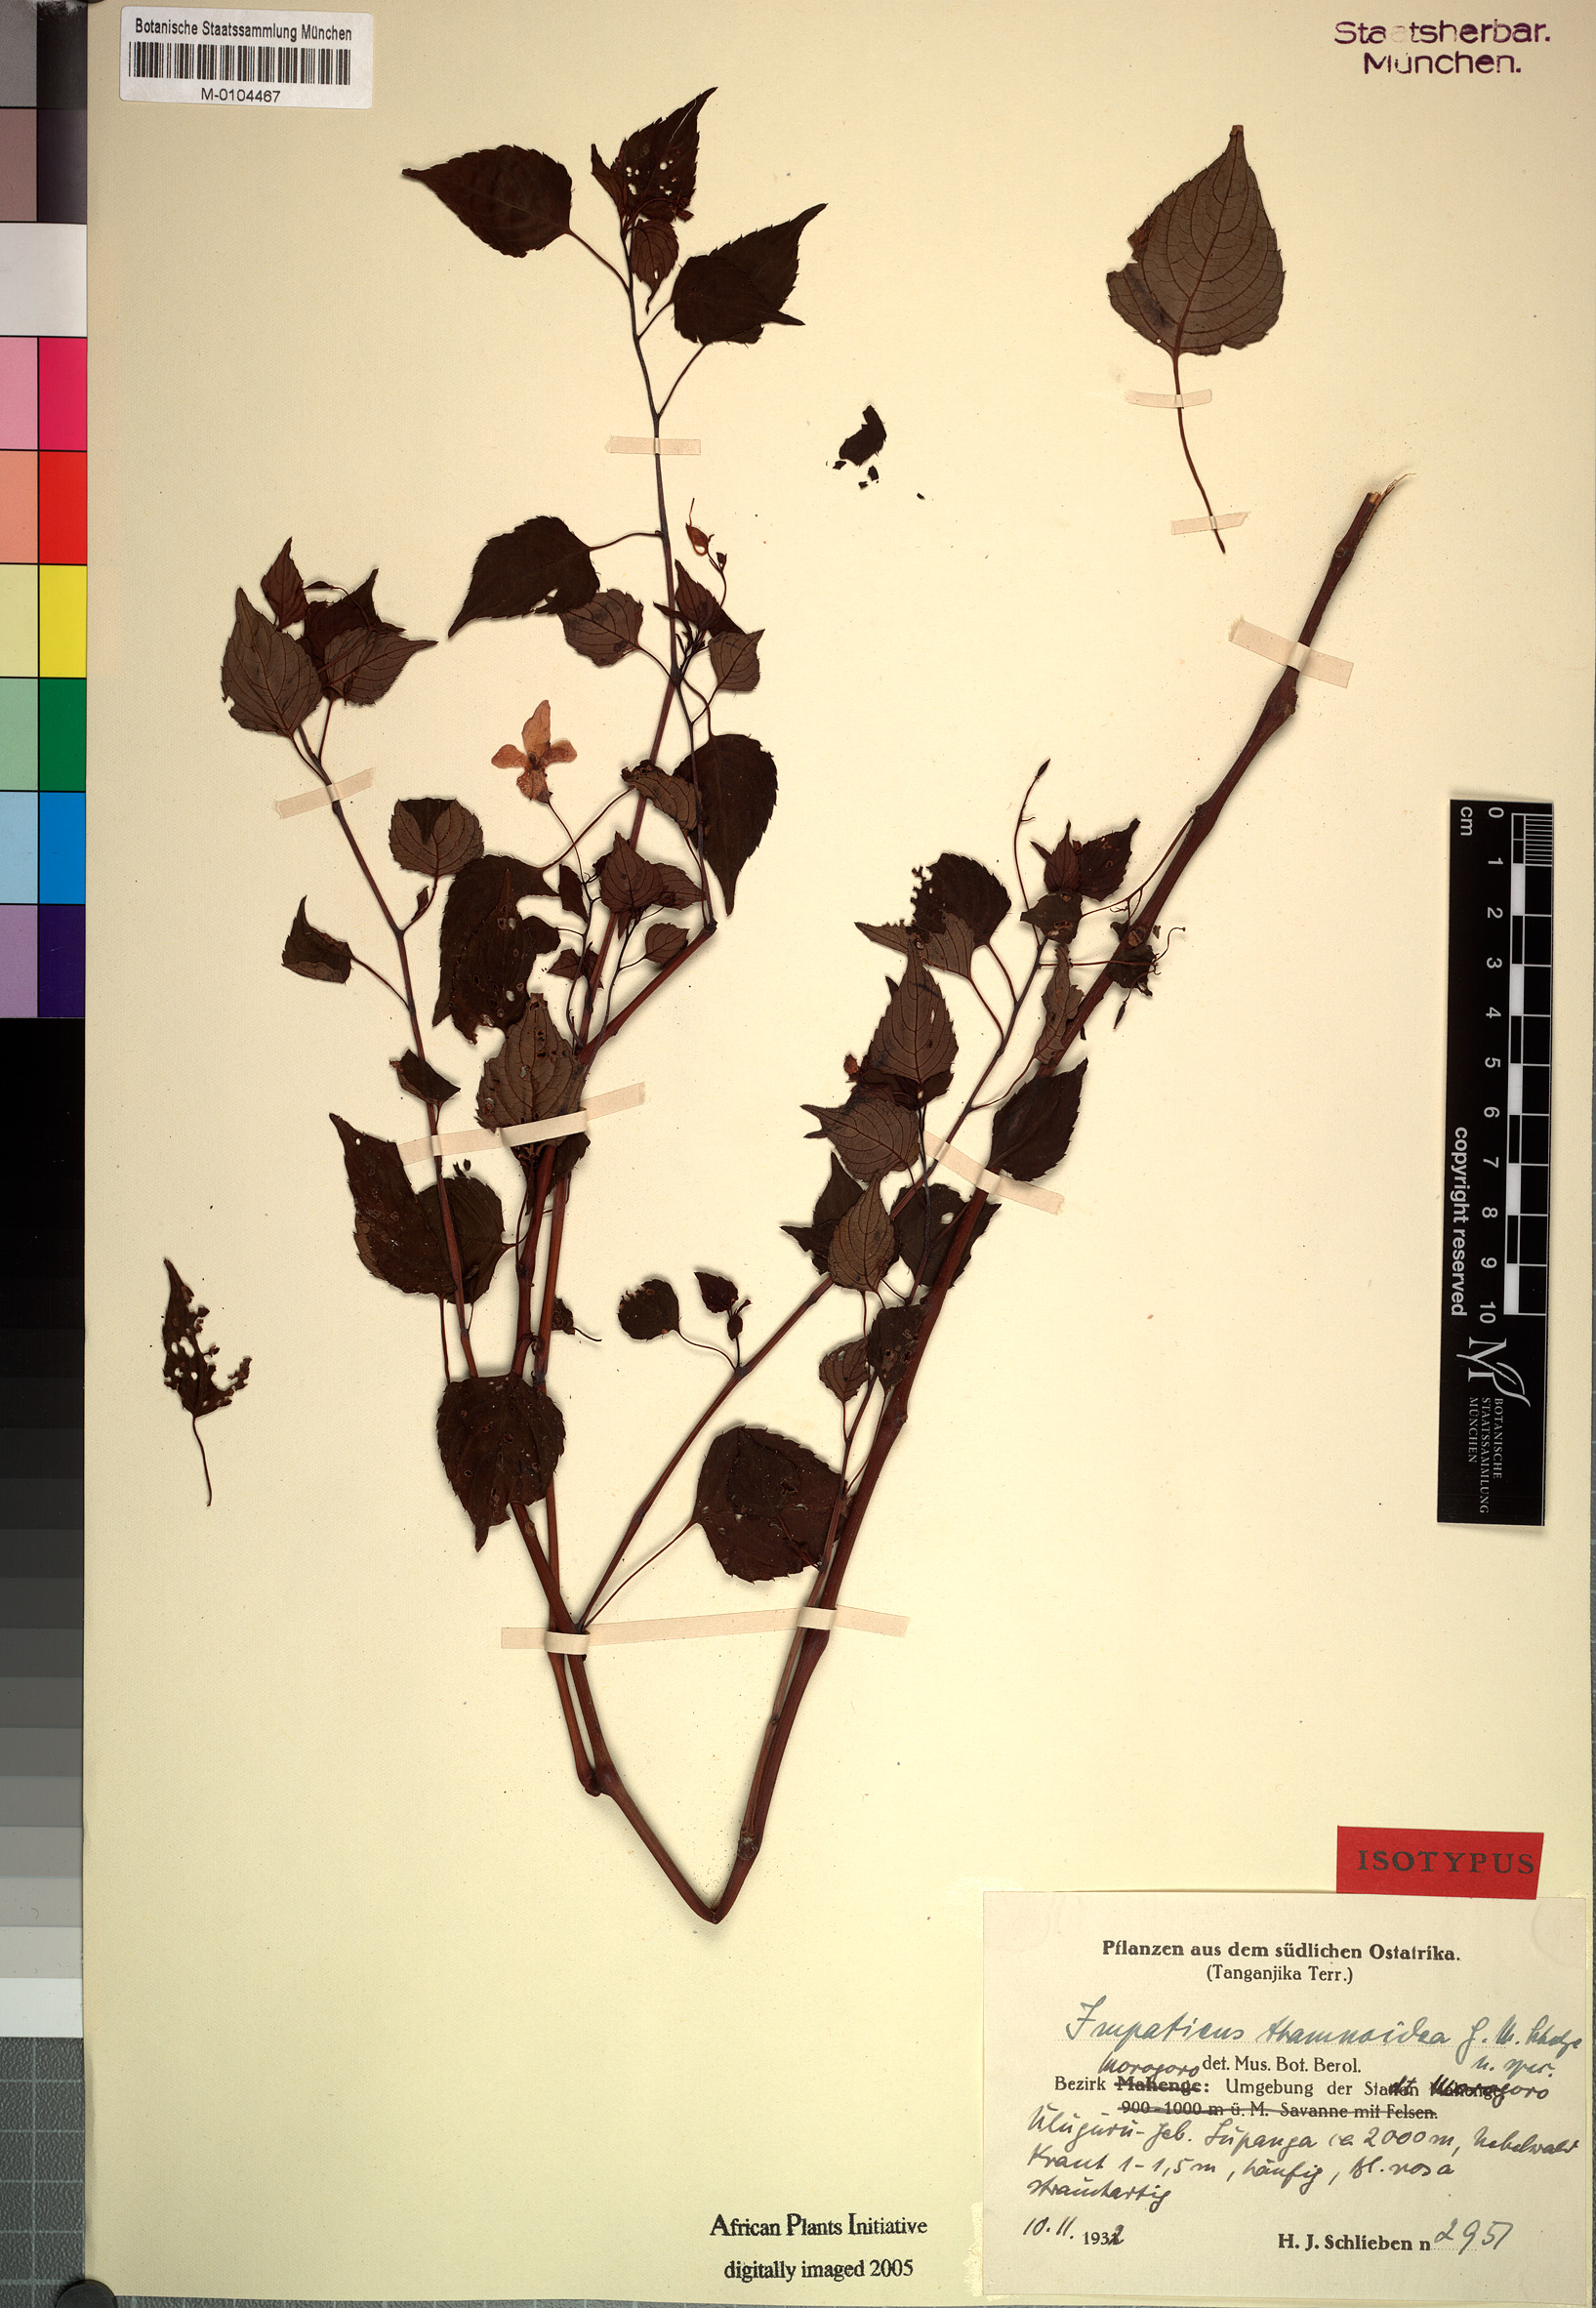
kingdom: Plantae
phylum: Tracheophyta
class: Magnoliopsida
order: Ericales
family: Balsaminaceae
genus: Impatiens
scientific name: Impatiens thamnoidea
